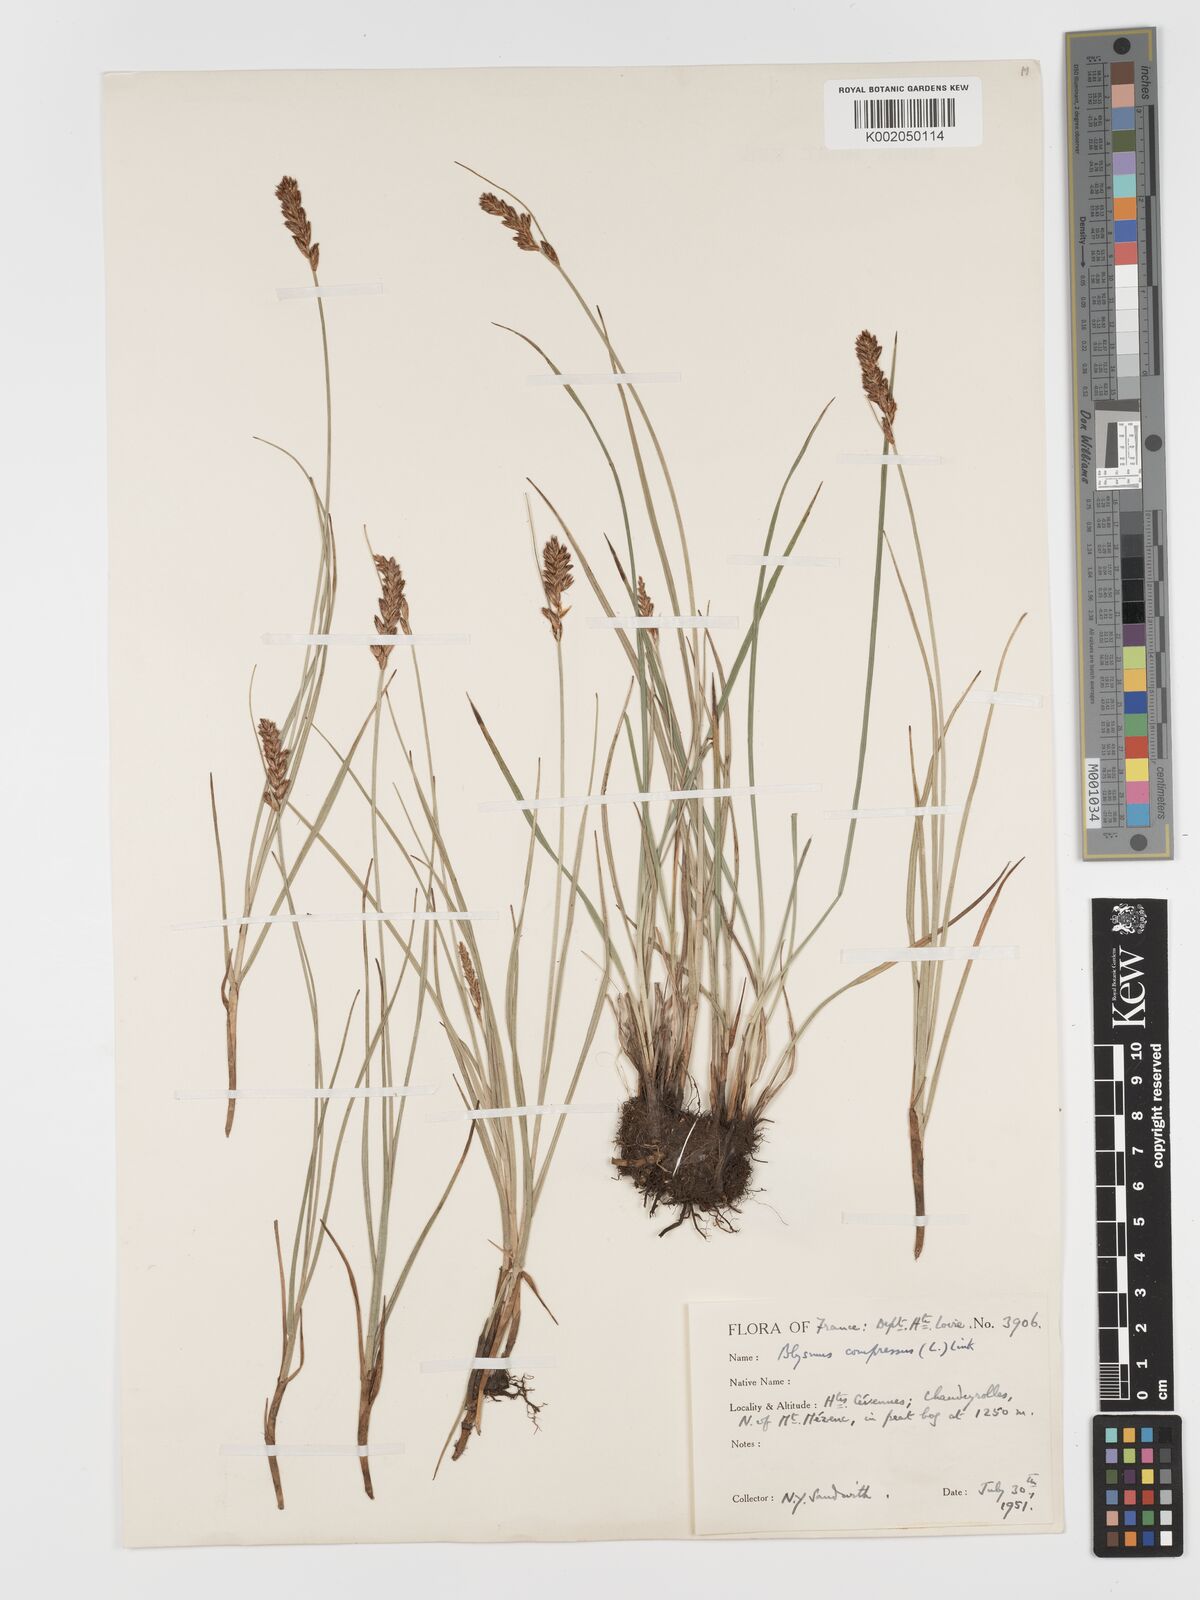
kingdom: Plantae
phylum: Tracheophyta
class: Liliopsida
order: Poales
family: Cyperaceae
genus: Blysmus
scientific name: Blysmus compressus
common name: Flat-sedge
